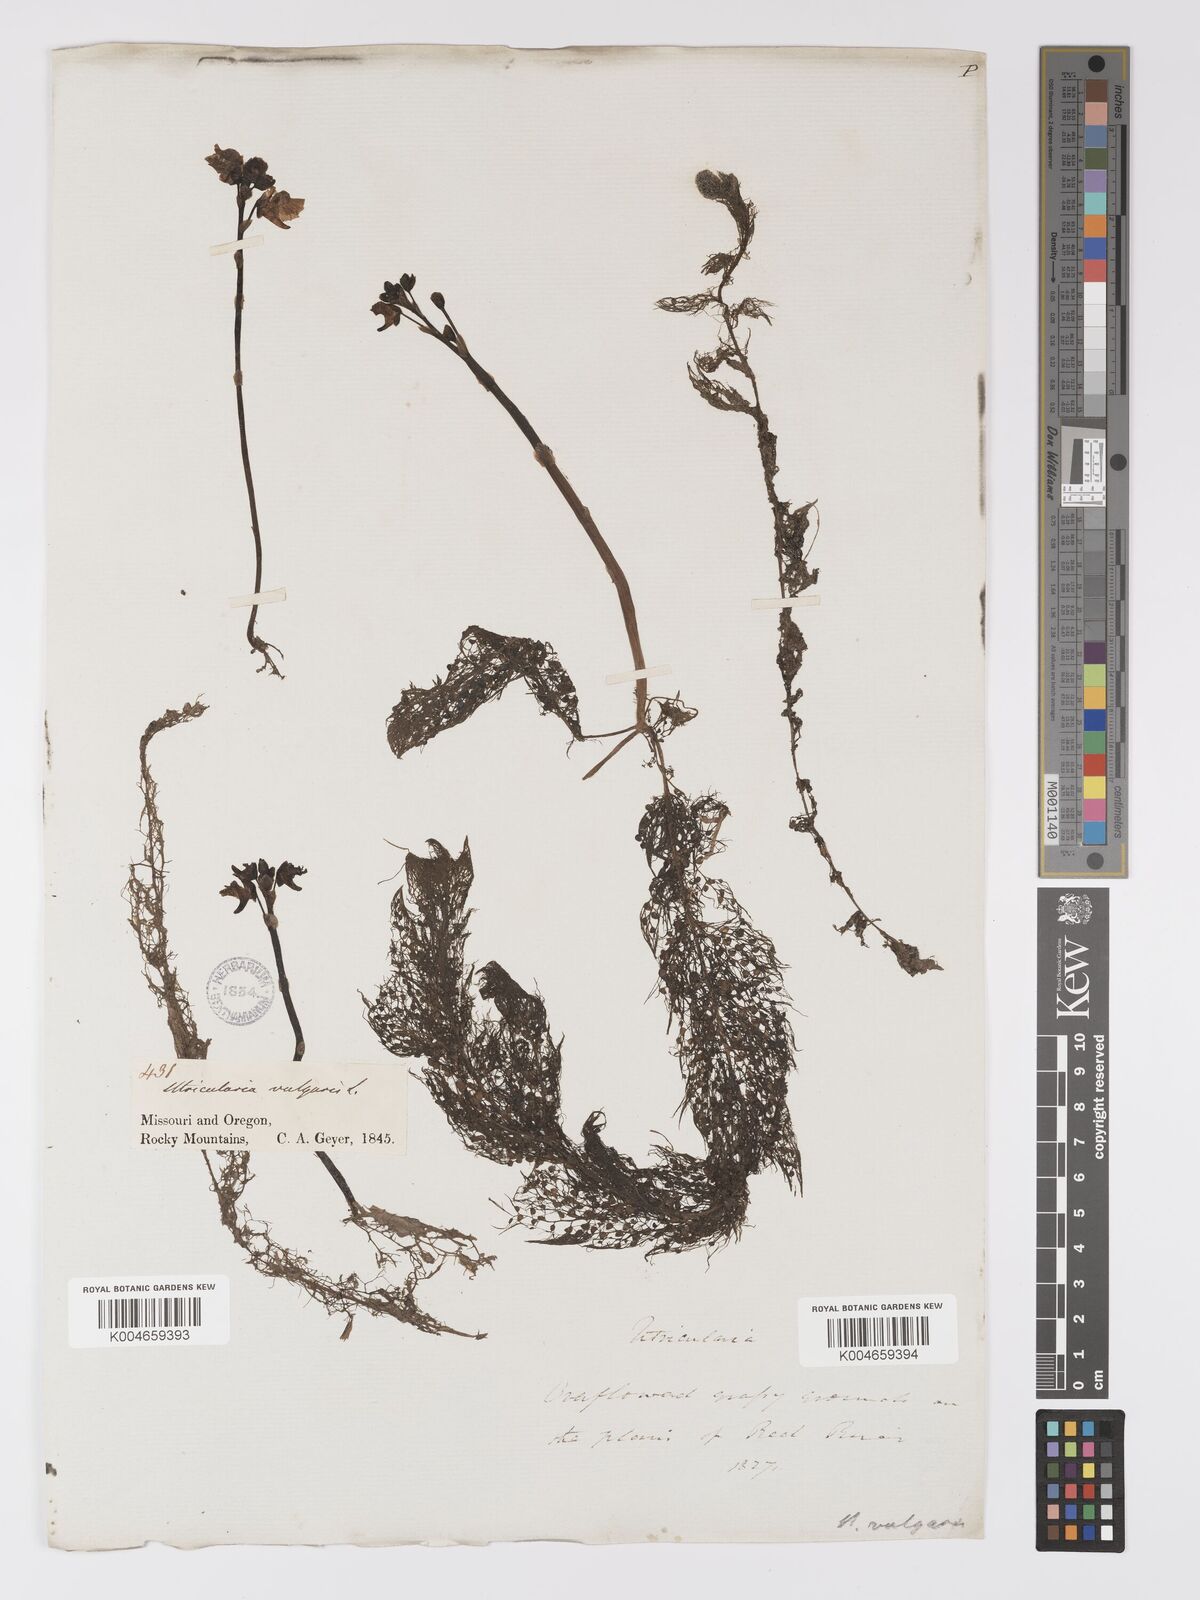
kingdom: Plantae
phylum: Tracheophyta
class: Magnoliopsida
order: Lamiales
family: Lentibulariaceae
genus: Utricularia
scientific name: Utricularia macrorhiza
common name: Common bladderwort
